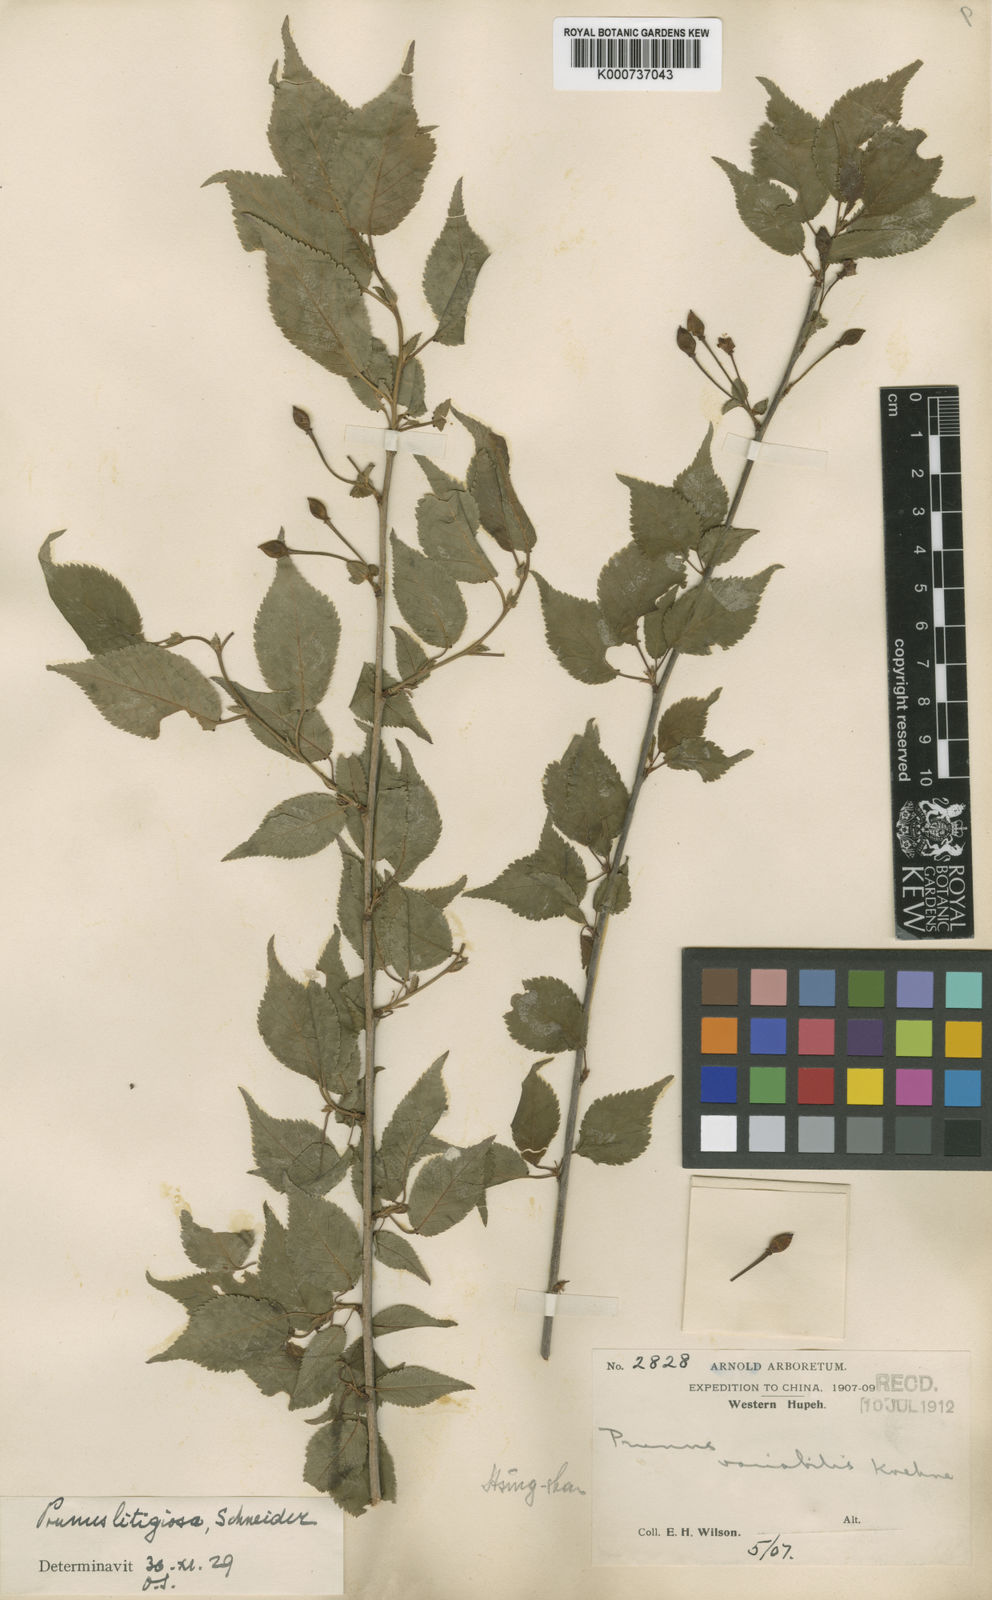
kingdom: Plantae
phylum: Tracheophyta
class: Magnoliopsida
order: Rosales
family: Rosaceae
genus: Prunus
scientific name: Prunus clarofolia
